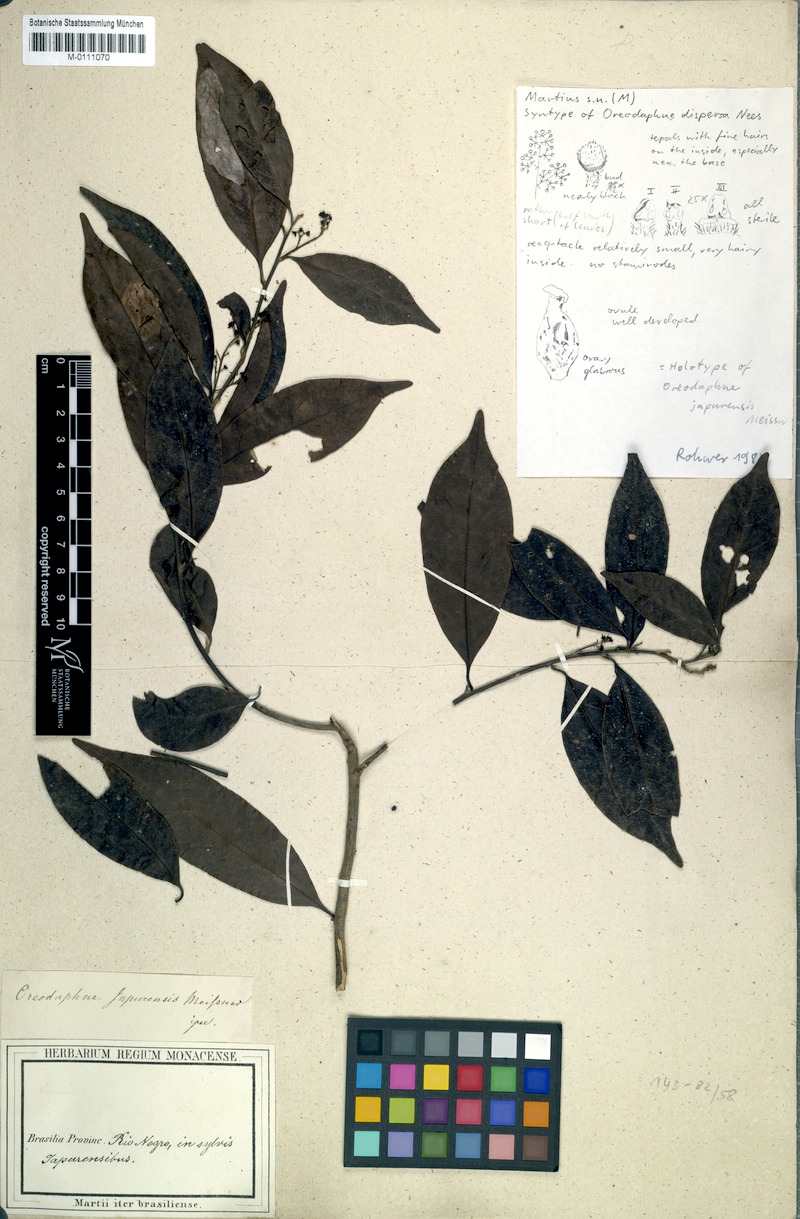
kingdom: Plantae
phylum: Tracheophyta
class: Magnoliopsida
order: Laurales
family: Lauraceae
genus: Ocotea
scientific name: Ocotea neesiana
